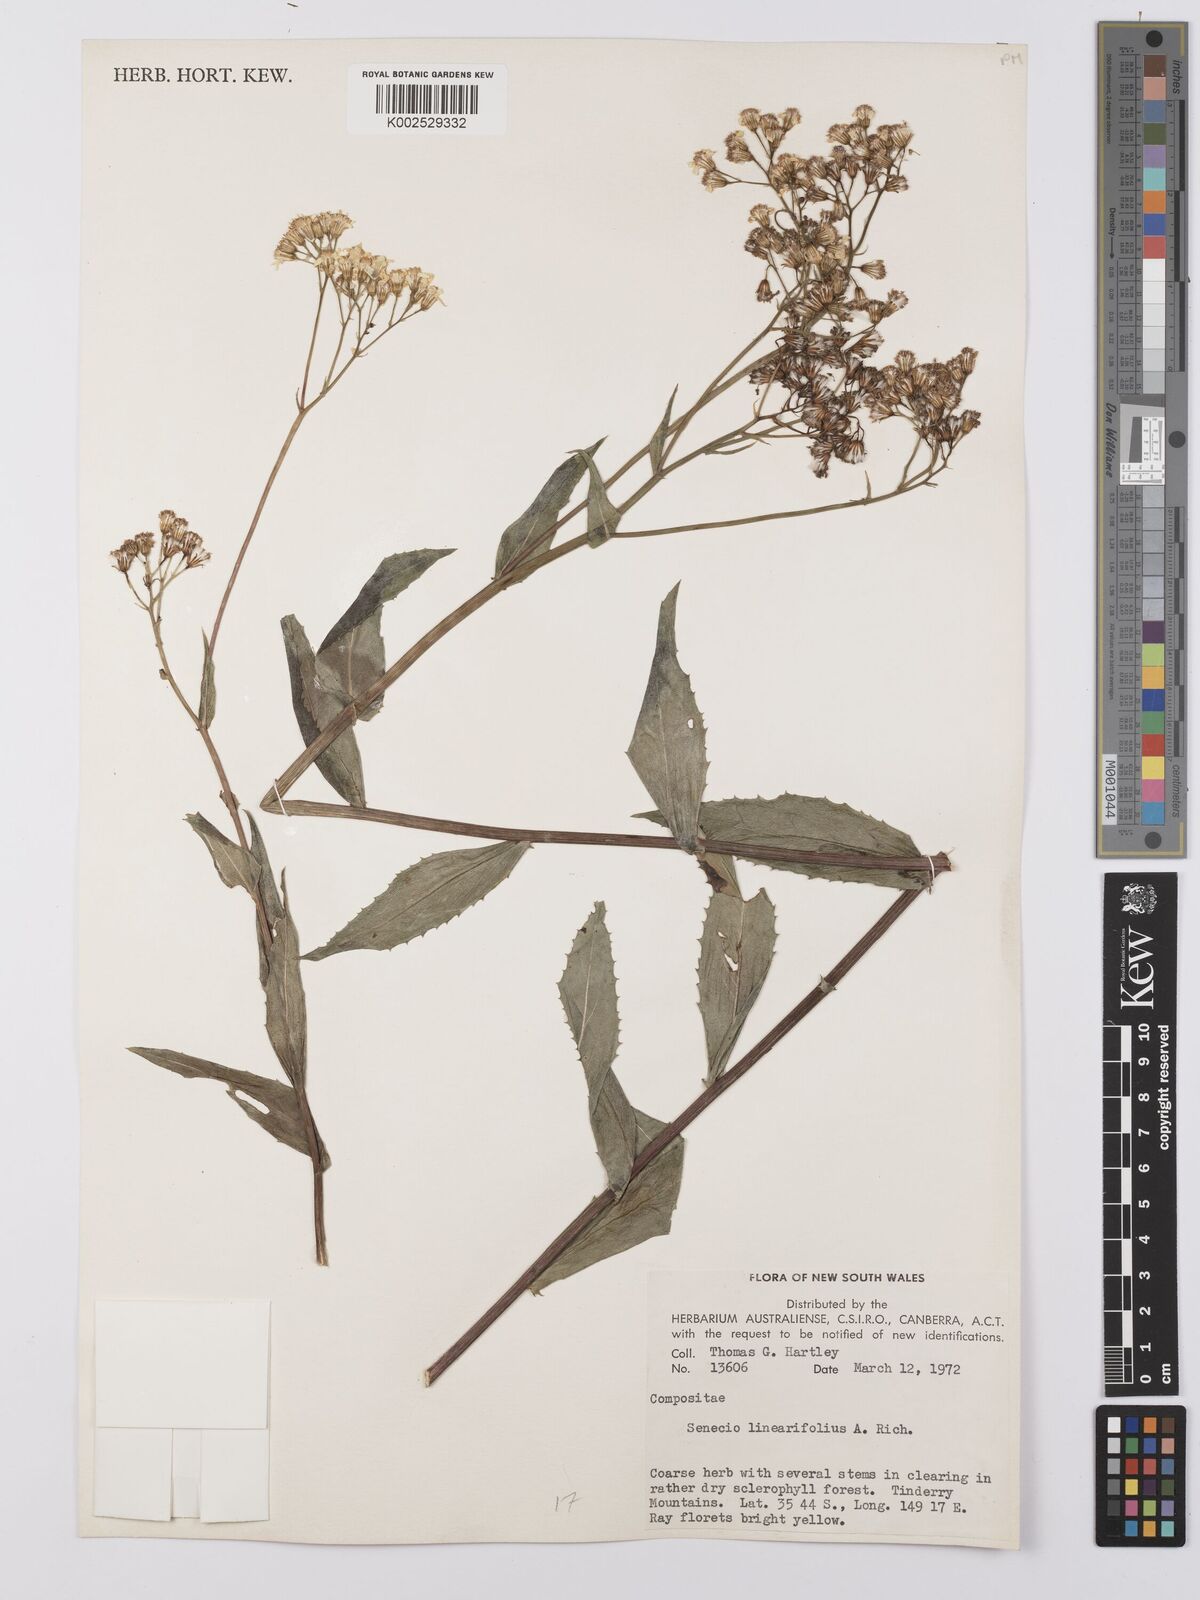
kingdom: Plantae
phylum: Tracheophyta
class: Magnoliopsida
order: Asterales
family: Asteraceae
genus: Senecio
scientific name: Senecio linearifolius
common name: Fireweed groundsel
